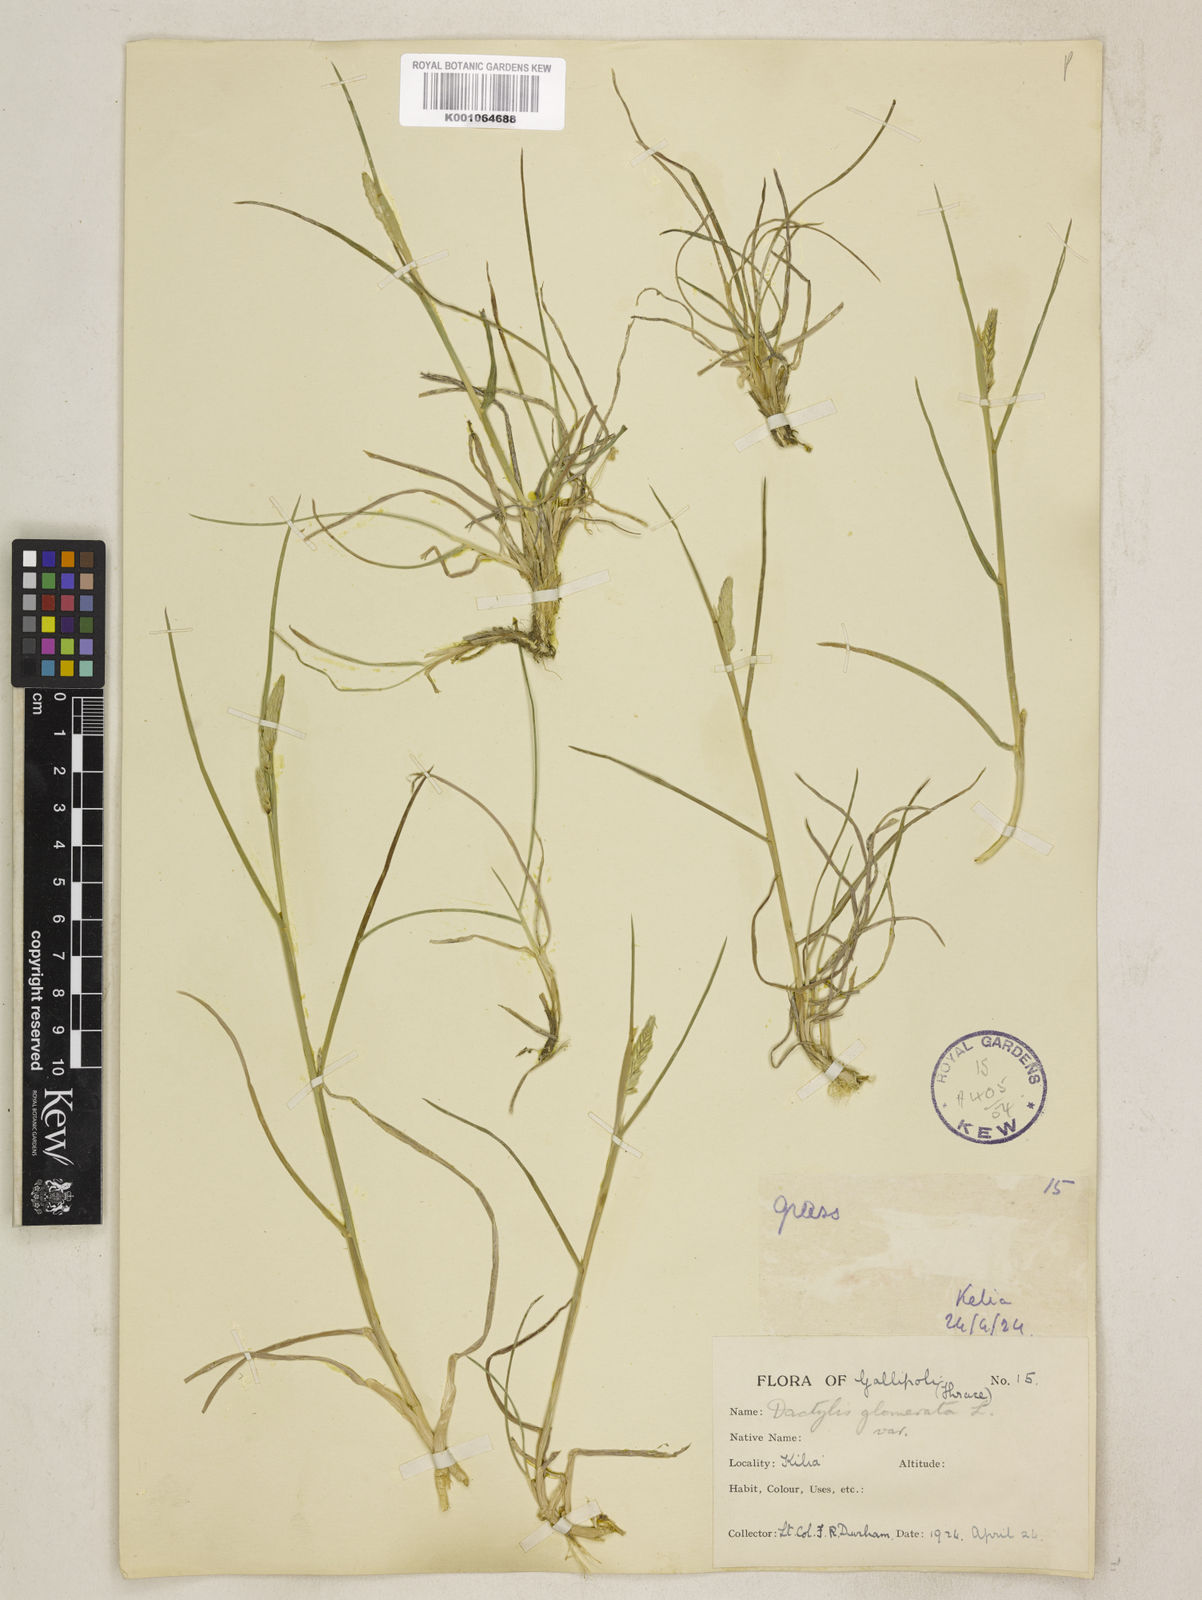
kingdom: Plantae
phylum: Tracheophyta
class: Liliopsida
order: Poales
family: Poaceae
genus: Dactylis
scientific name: Dactylis glomerata
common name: Orchardgrass
